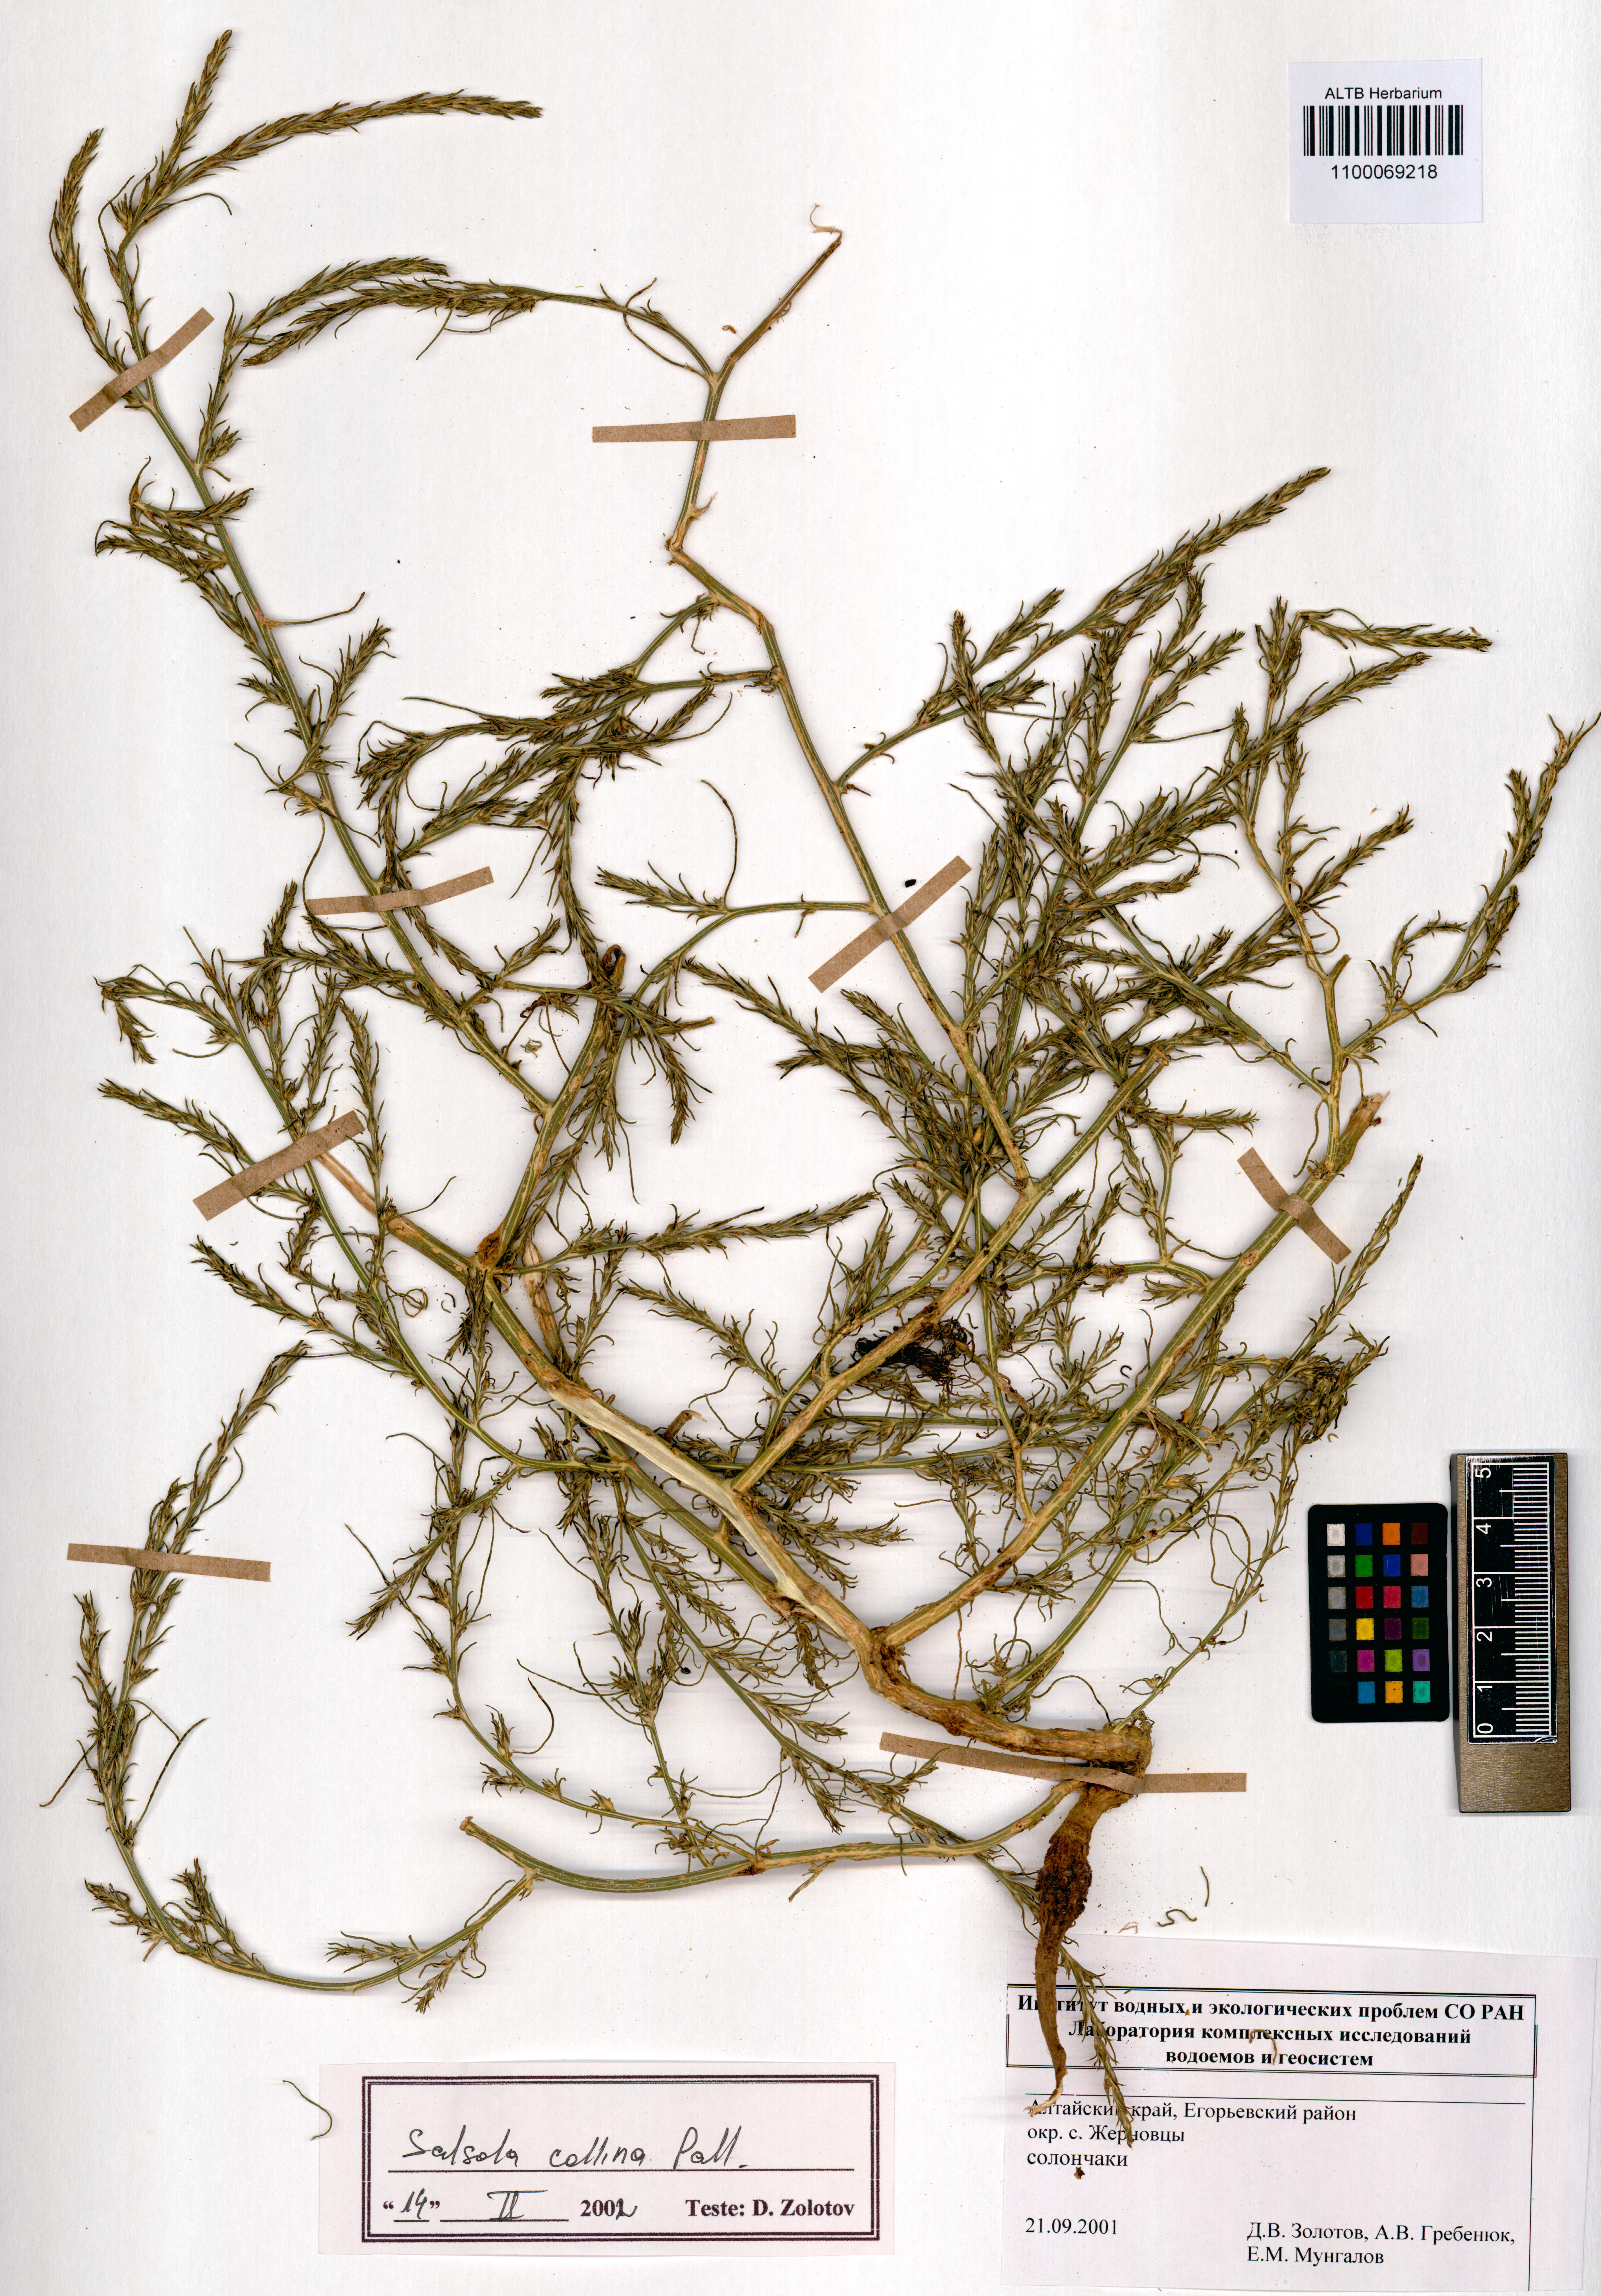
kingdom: Plantae
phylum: Tracheophyta
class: Magnoliopsida
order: Caryophyllales
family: Amaranthaceae
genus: Salsola
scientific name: Salsola collina
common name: Tumbleweed
